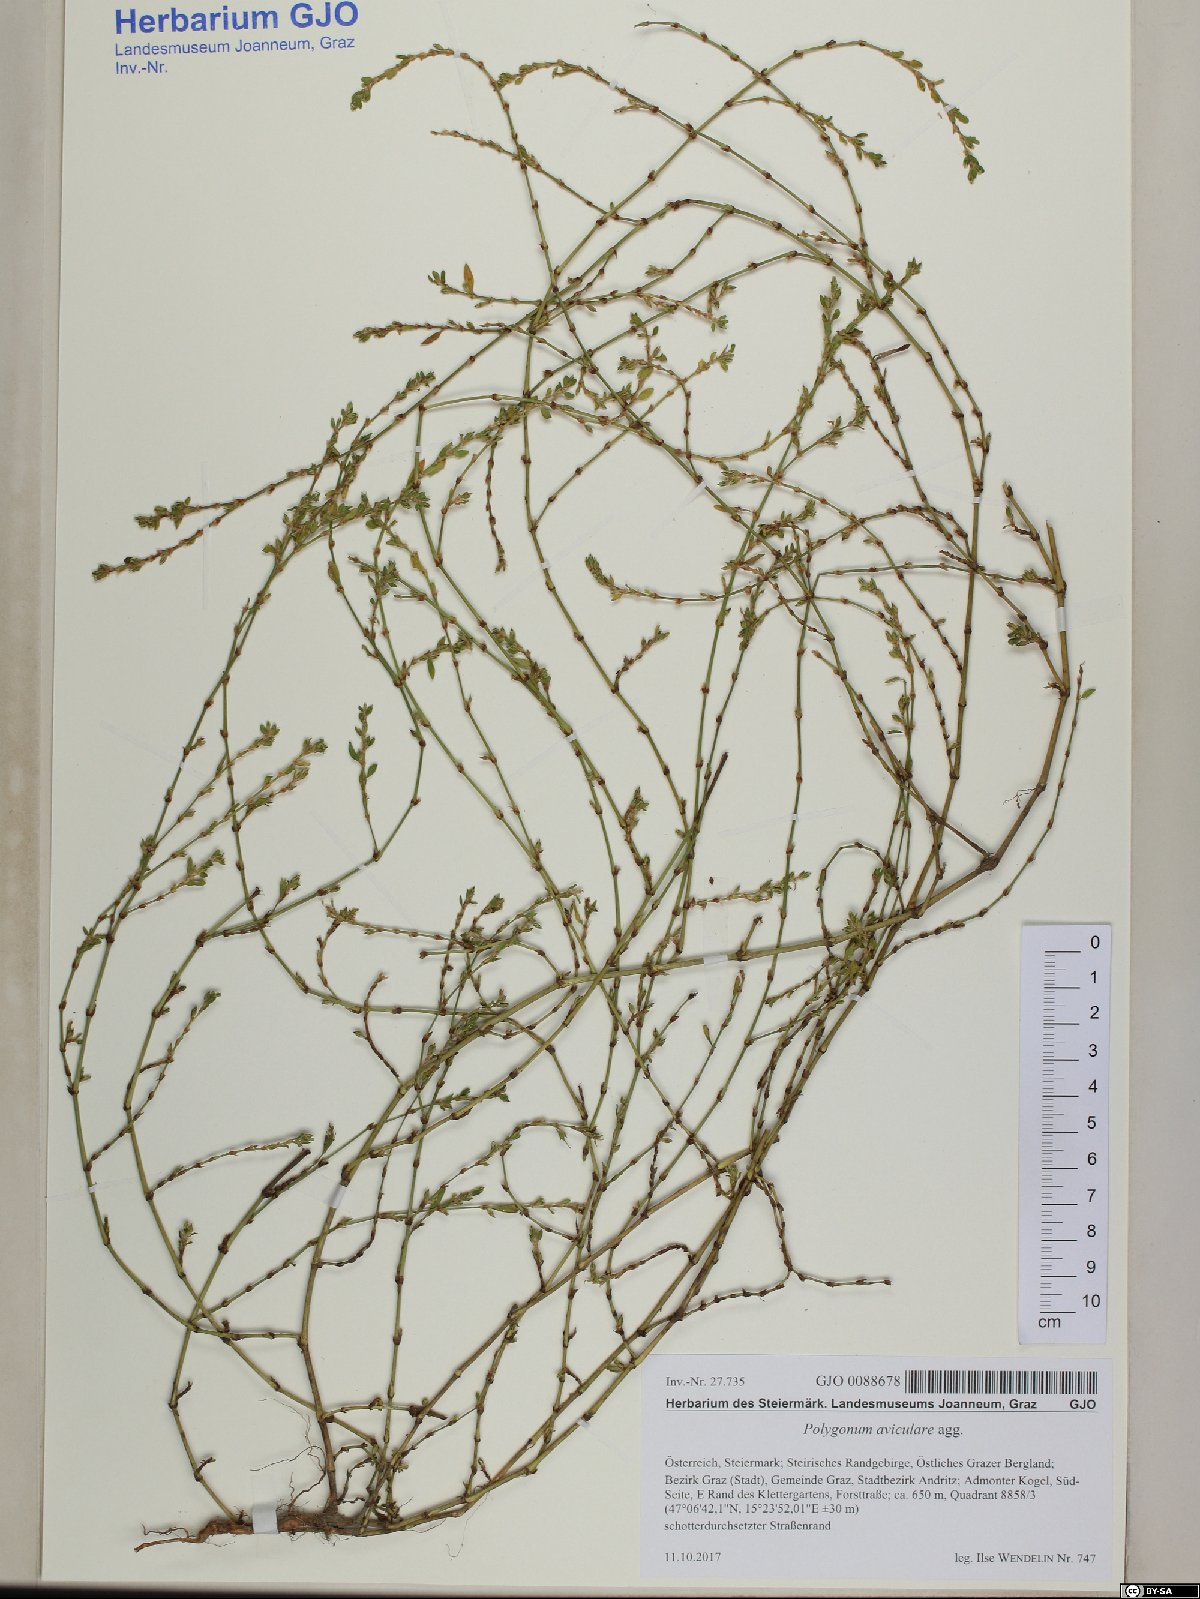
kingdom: Plantae
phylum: Tracheophyta
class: Magnoliopsida
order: Caryophyllales
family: Polygonaceae
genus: Polygonum
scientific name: Polygonum aviculare
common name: Prostrate knotweed
